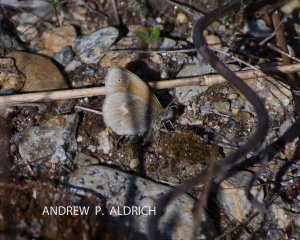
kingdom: Animalia
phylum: Arthropoda
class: Insecta
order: Lepidoptera
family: Nymphalidae
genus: Coenonympha
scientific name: Coenonympha tullia
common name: Large Heath
